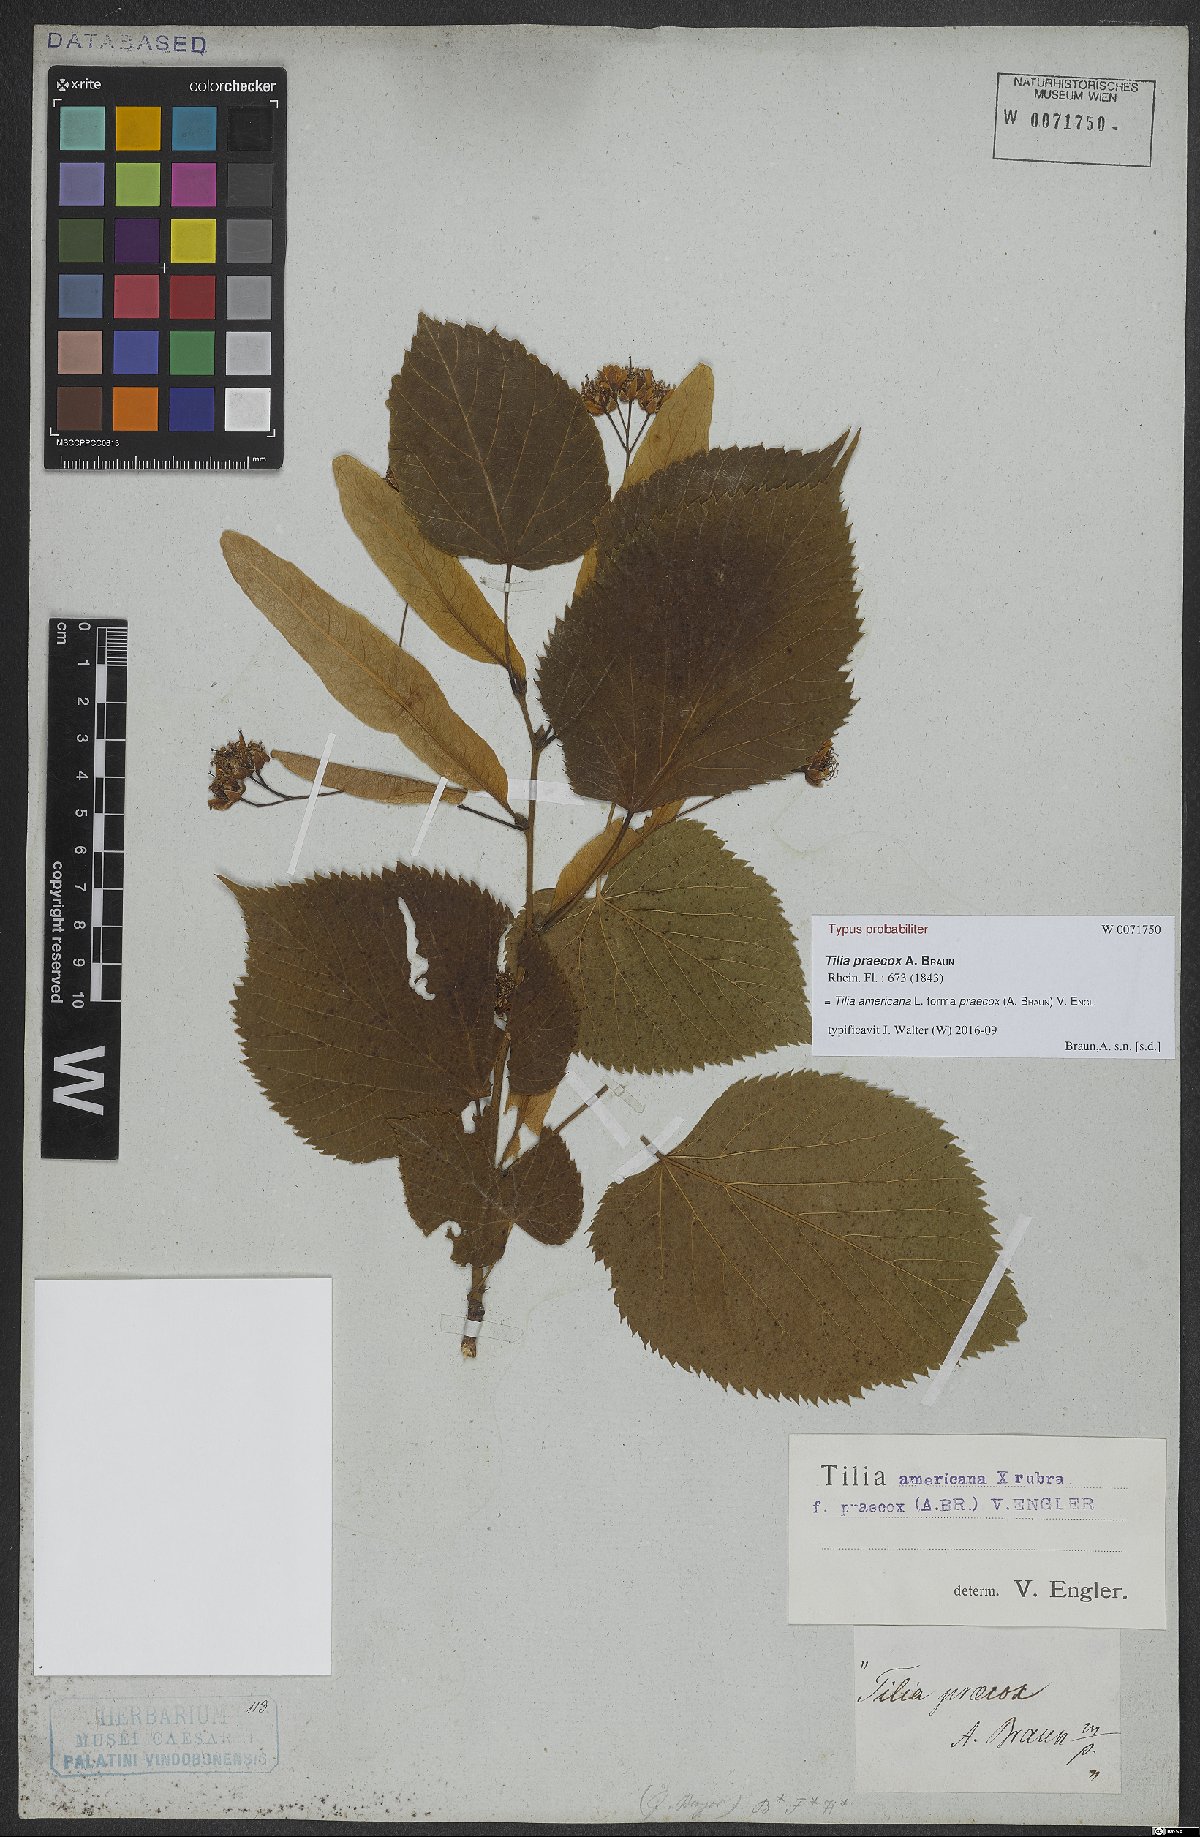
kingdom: Plantae
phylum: Tracheophyta
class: Magnoliopsida
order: Malvales
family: Malvaceae
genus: Tilia
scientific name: Tilia flaccida
